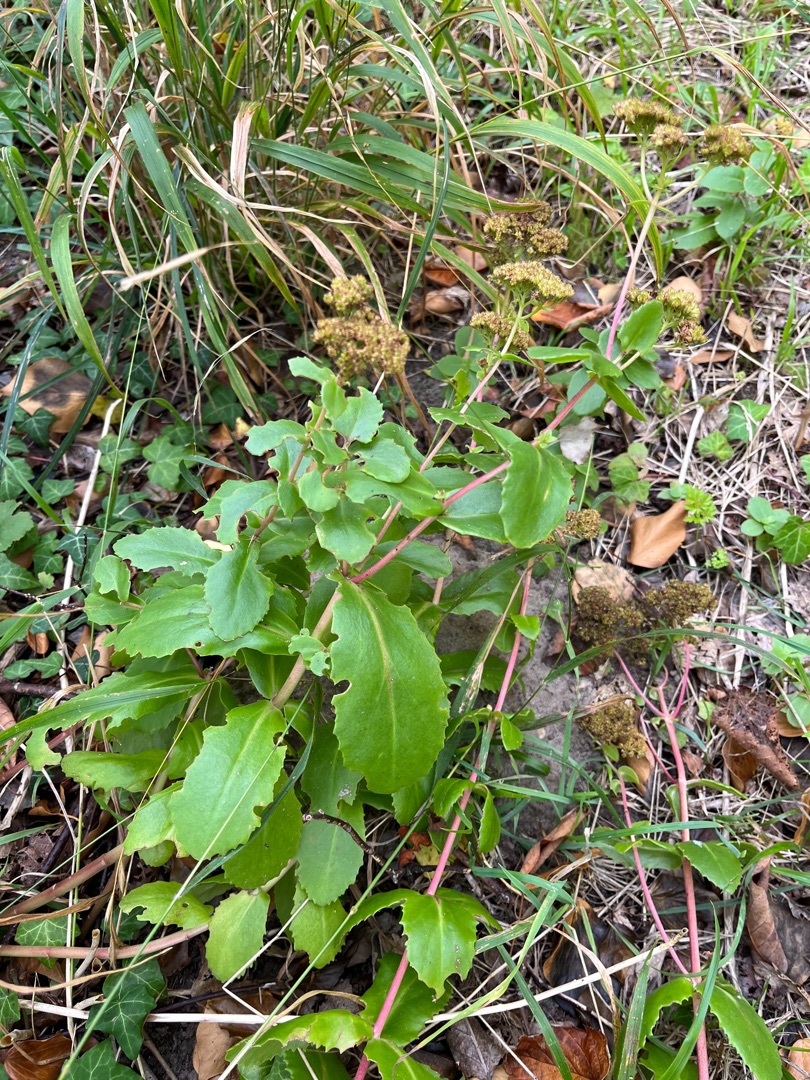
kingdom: Plantae
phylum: Tracheophyta
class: Magnoliopsida
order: Saxifragales
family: Crassulaceae
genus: Hylotelephium
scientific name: Hylotelephium maximum
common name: Almindelig sankthansurt
